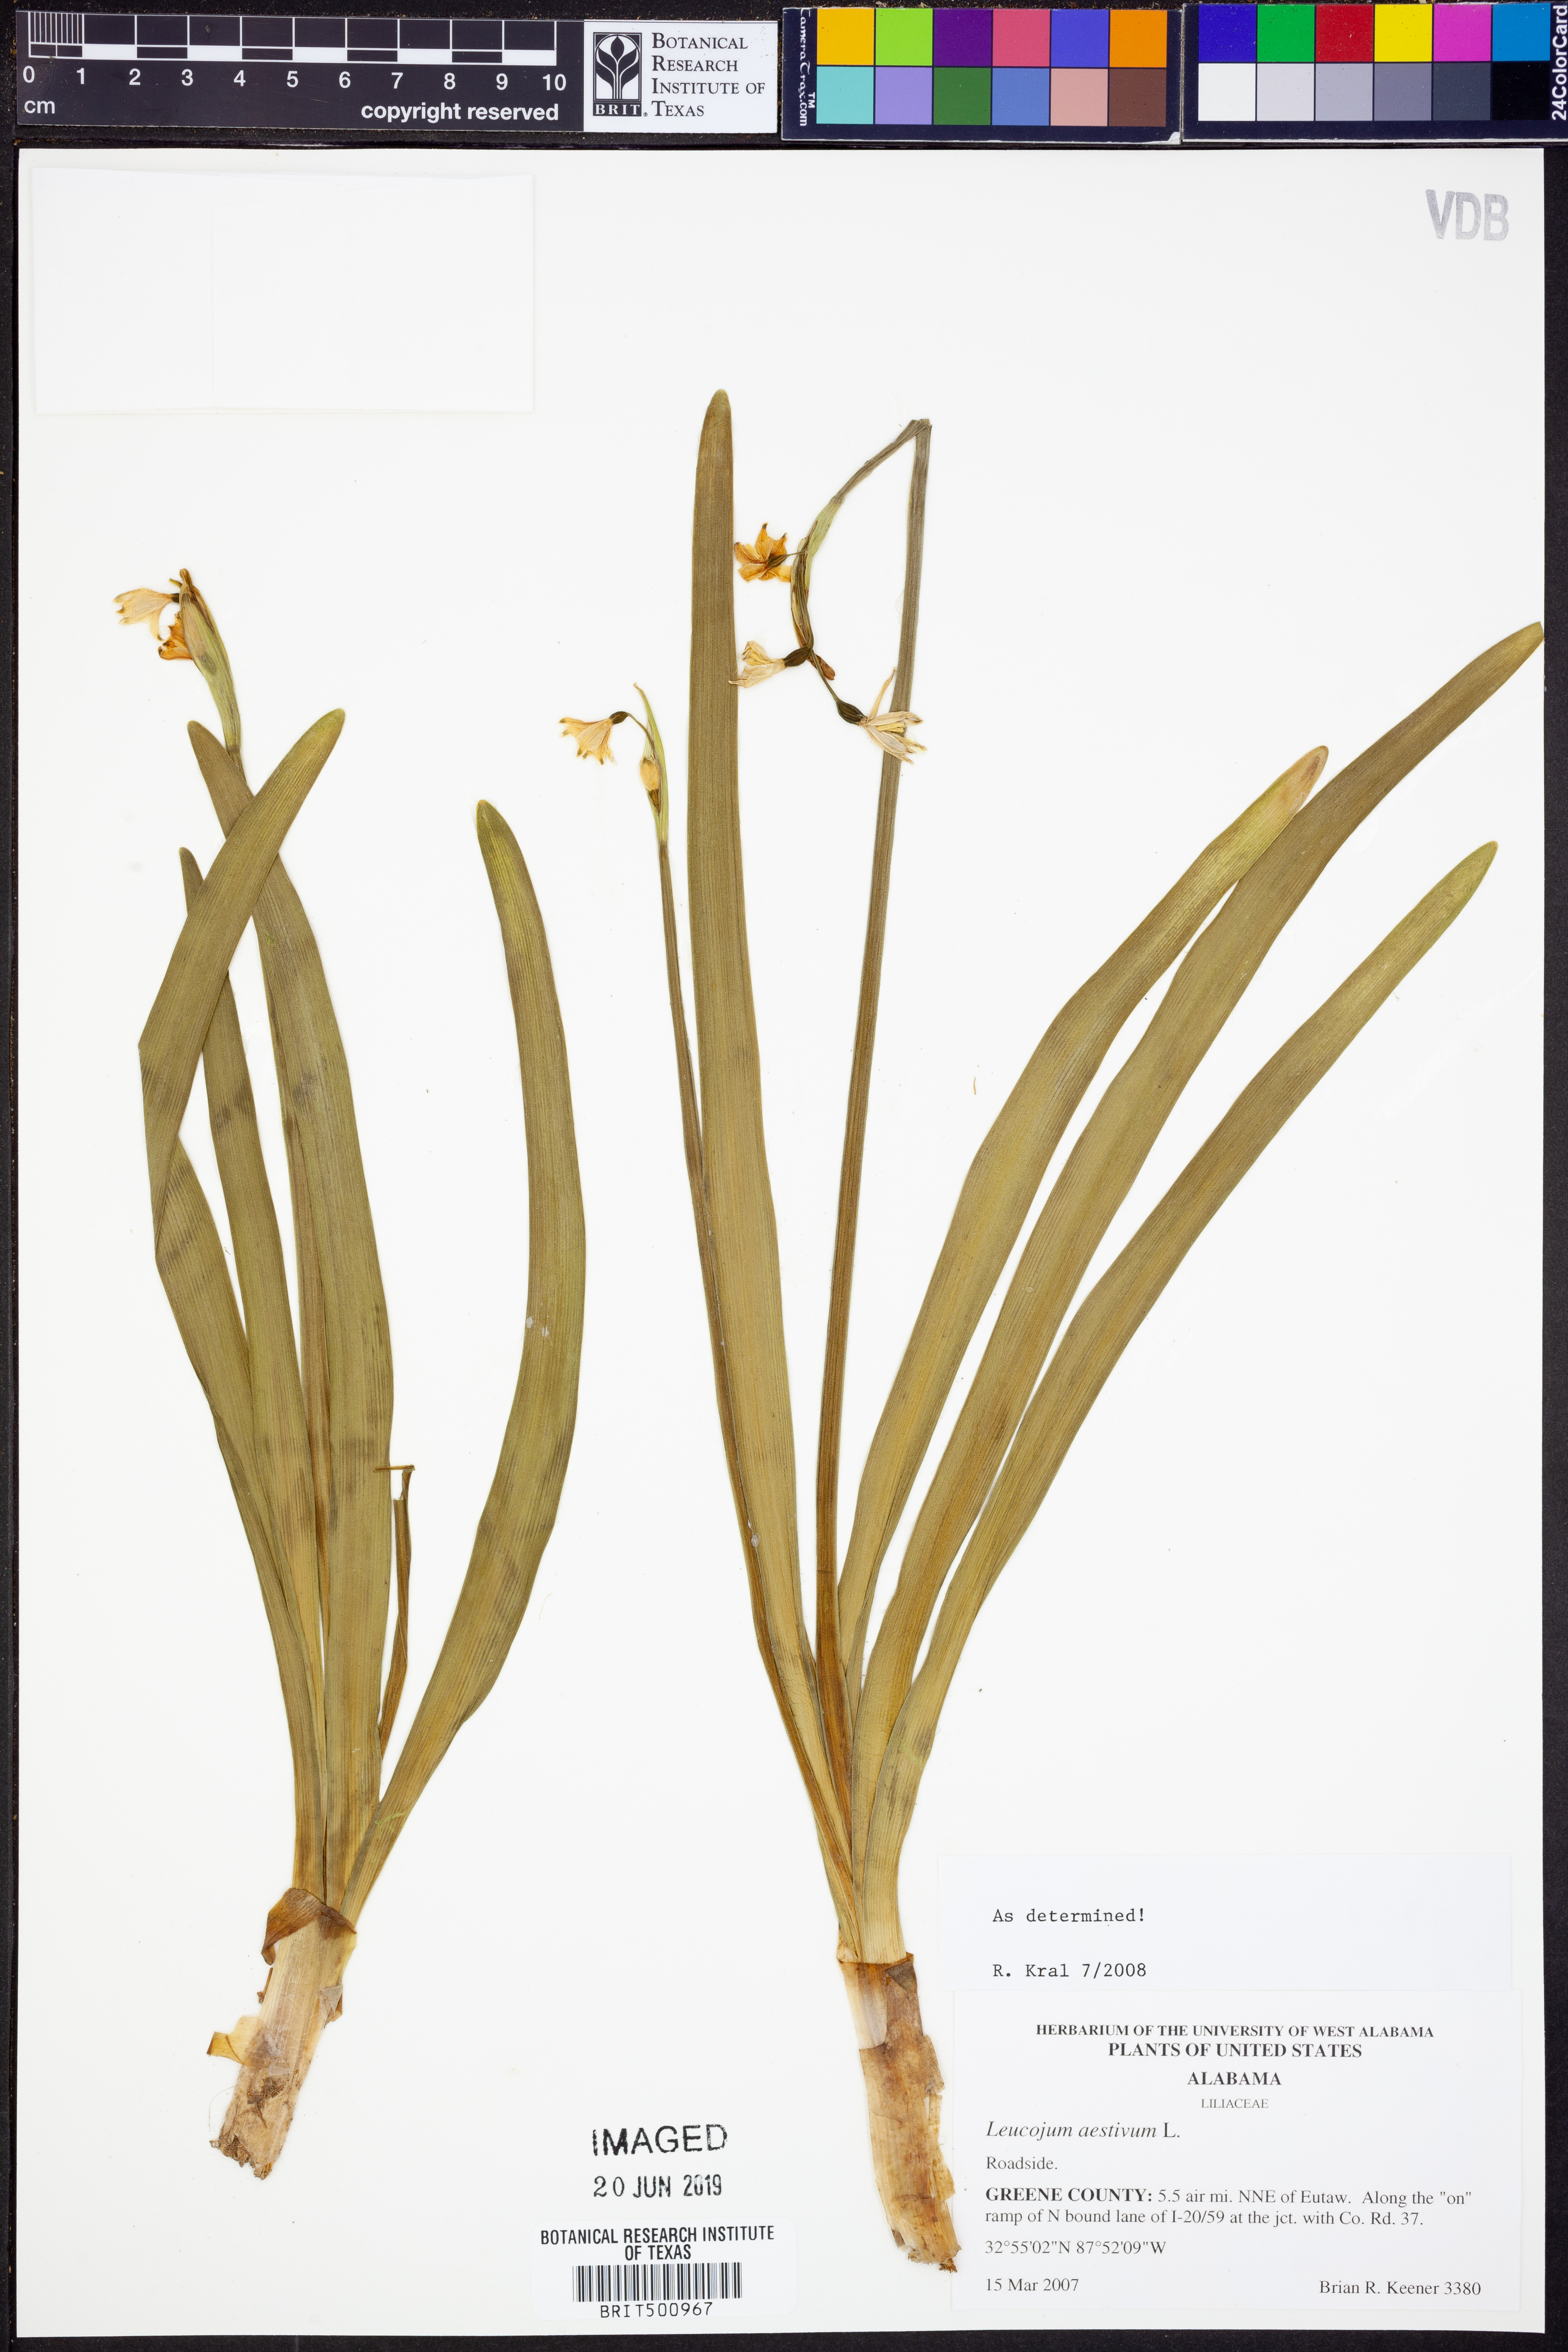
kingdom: Plantae
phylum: Tracheophyta
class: Liliopsida
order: Asparagales
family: Amaryllidaceae
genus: Leucojum
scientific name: Leucojum aestivum
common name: Summer snowflake
